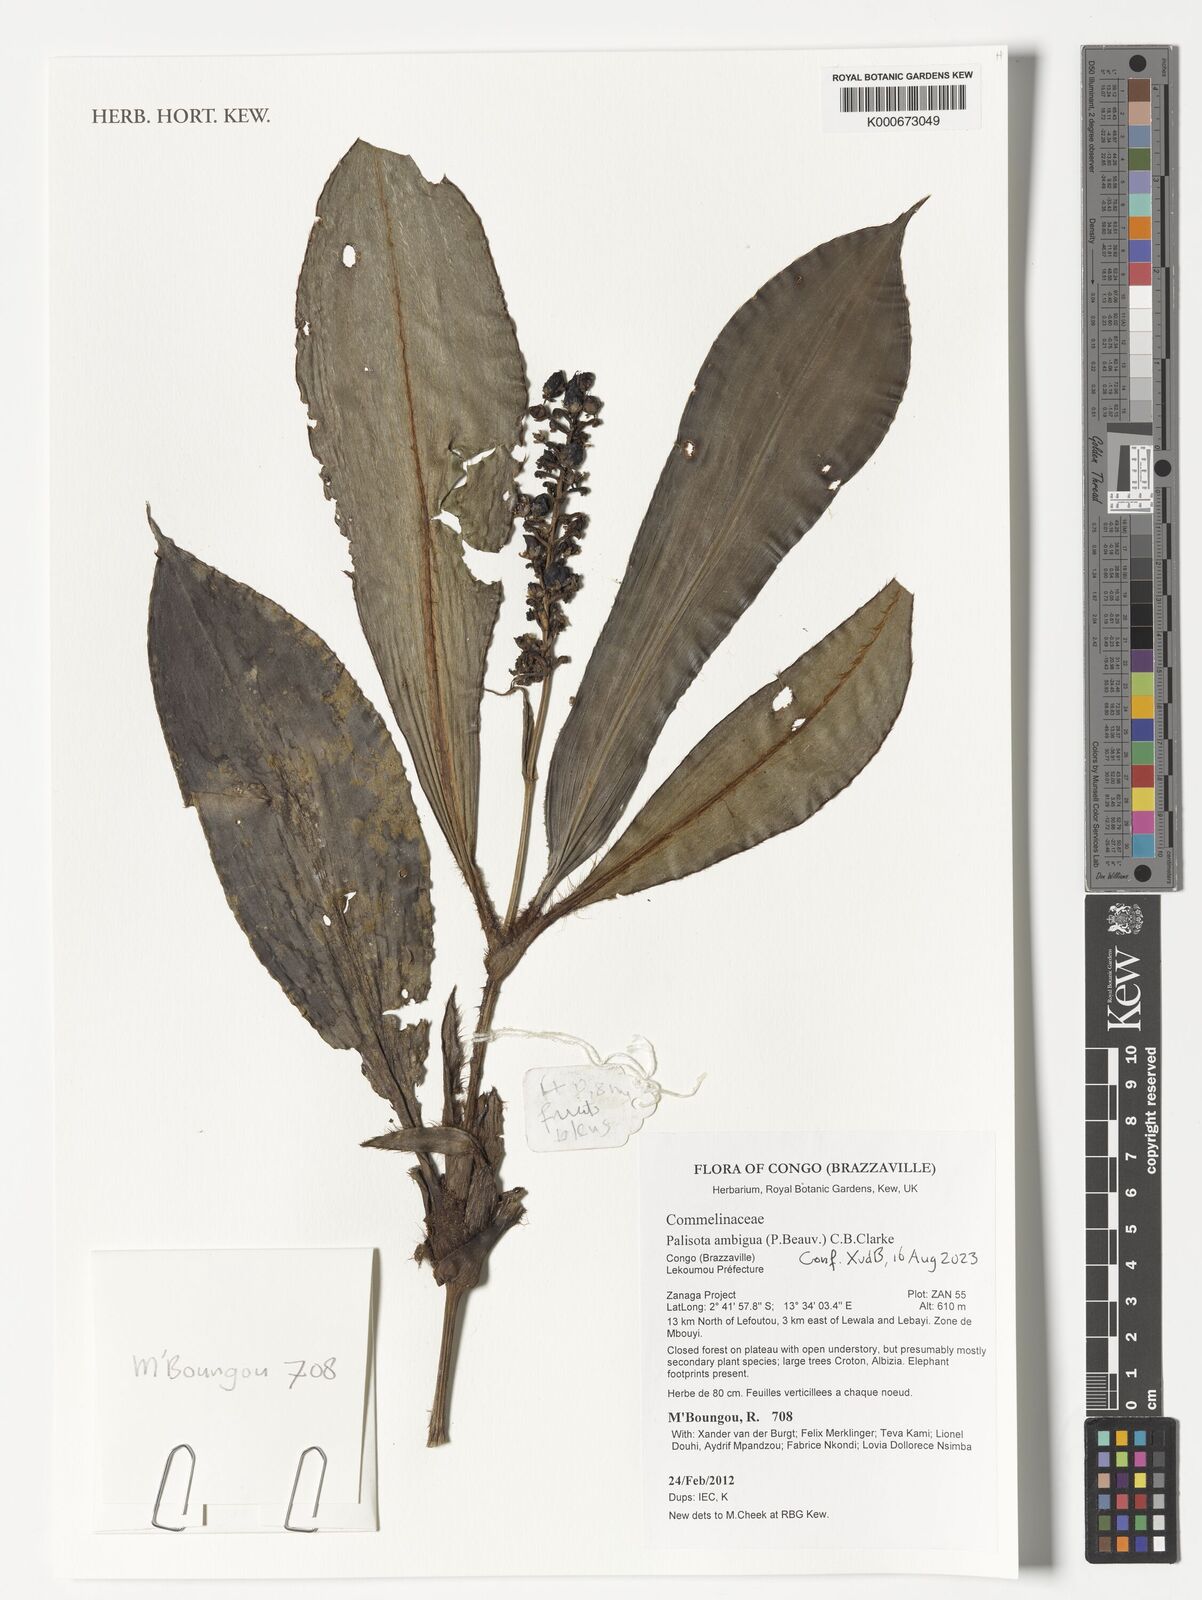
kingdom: Plantae
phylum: Tracheophyta
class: Liliopsida
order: Commelinales
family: Commelinaceae
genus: Palisota
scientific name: Palisota ambigua
